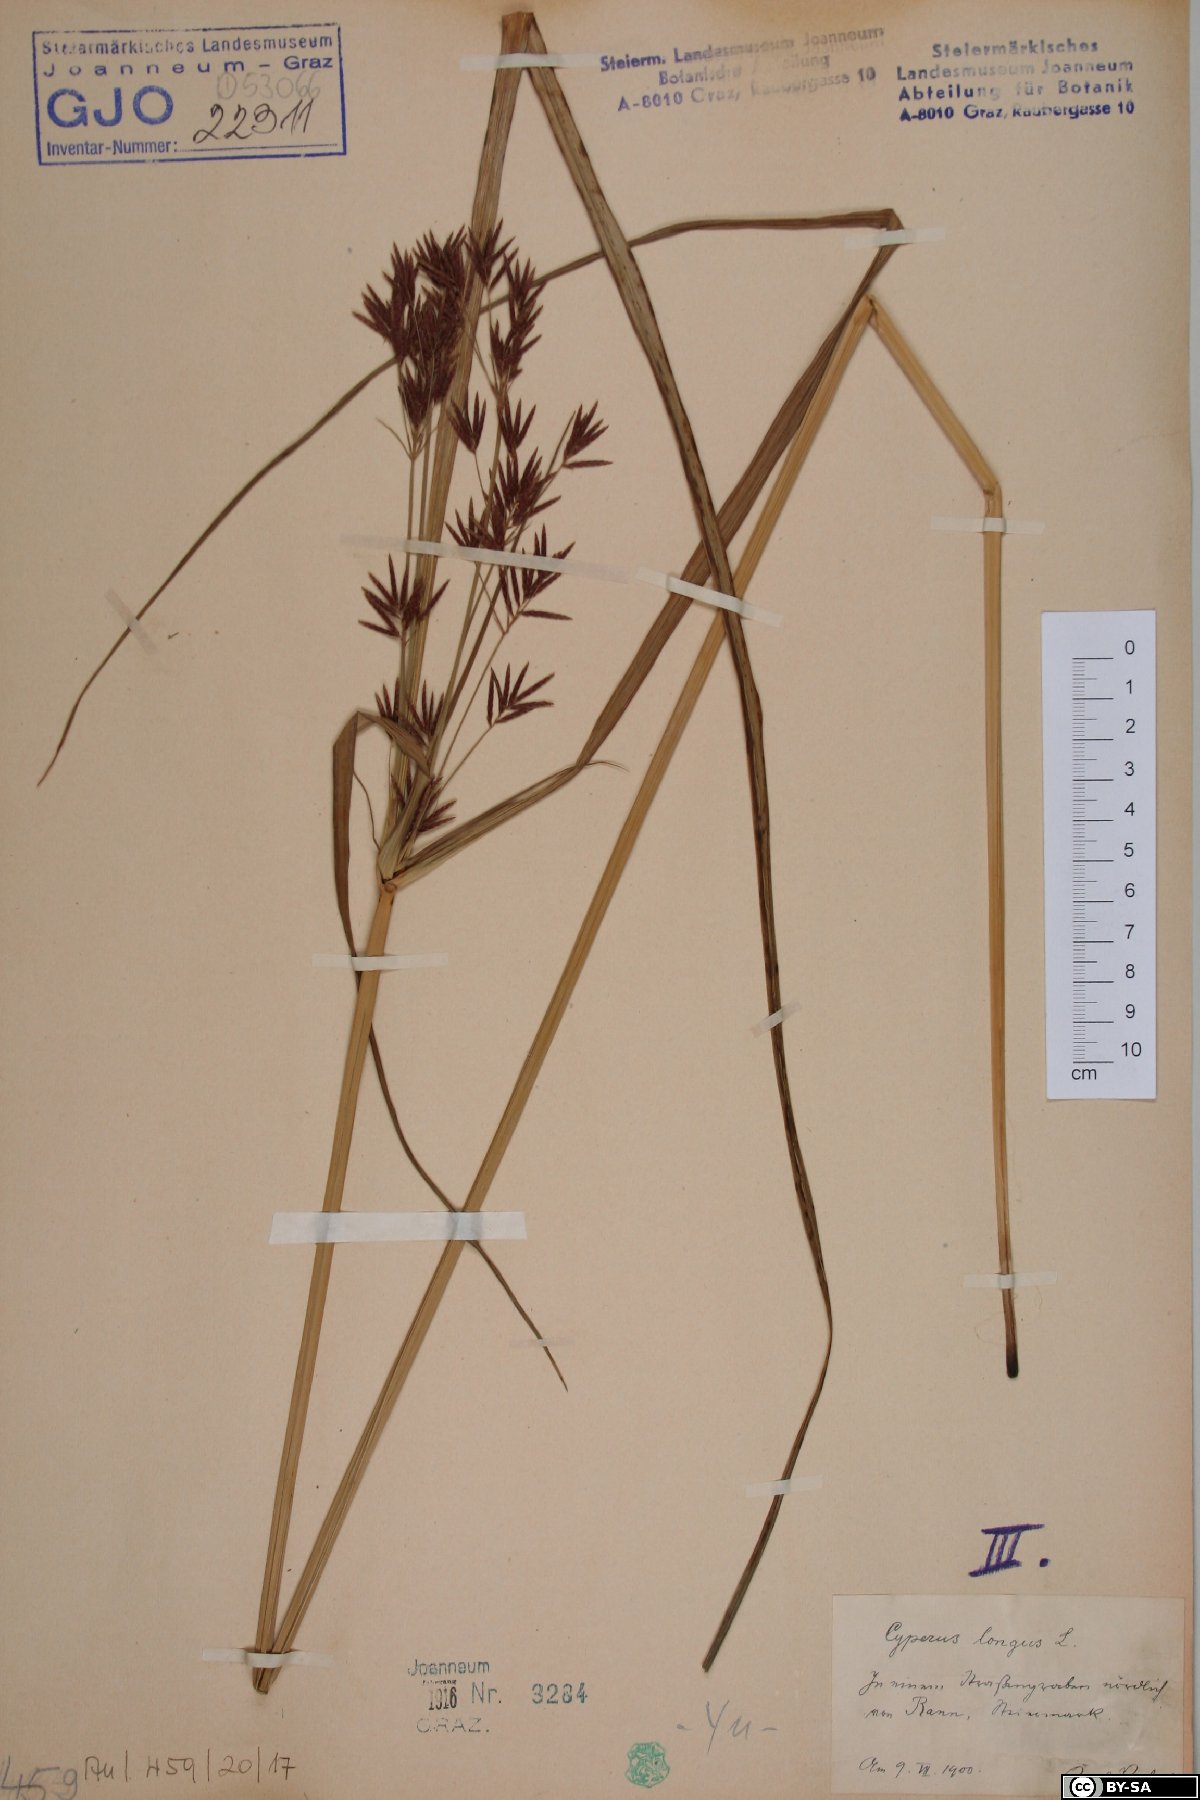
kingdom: Plantae
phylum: Tracheophyta
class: Liliopsida
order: Poales
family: Cyperaceae
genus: Cyperus
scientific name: Cyperus longus
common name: Galingale
